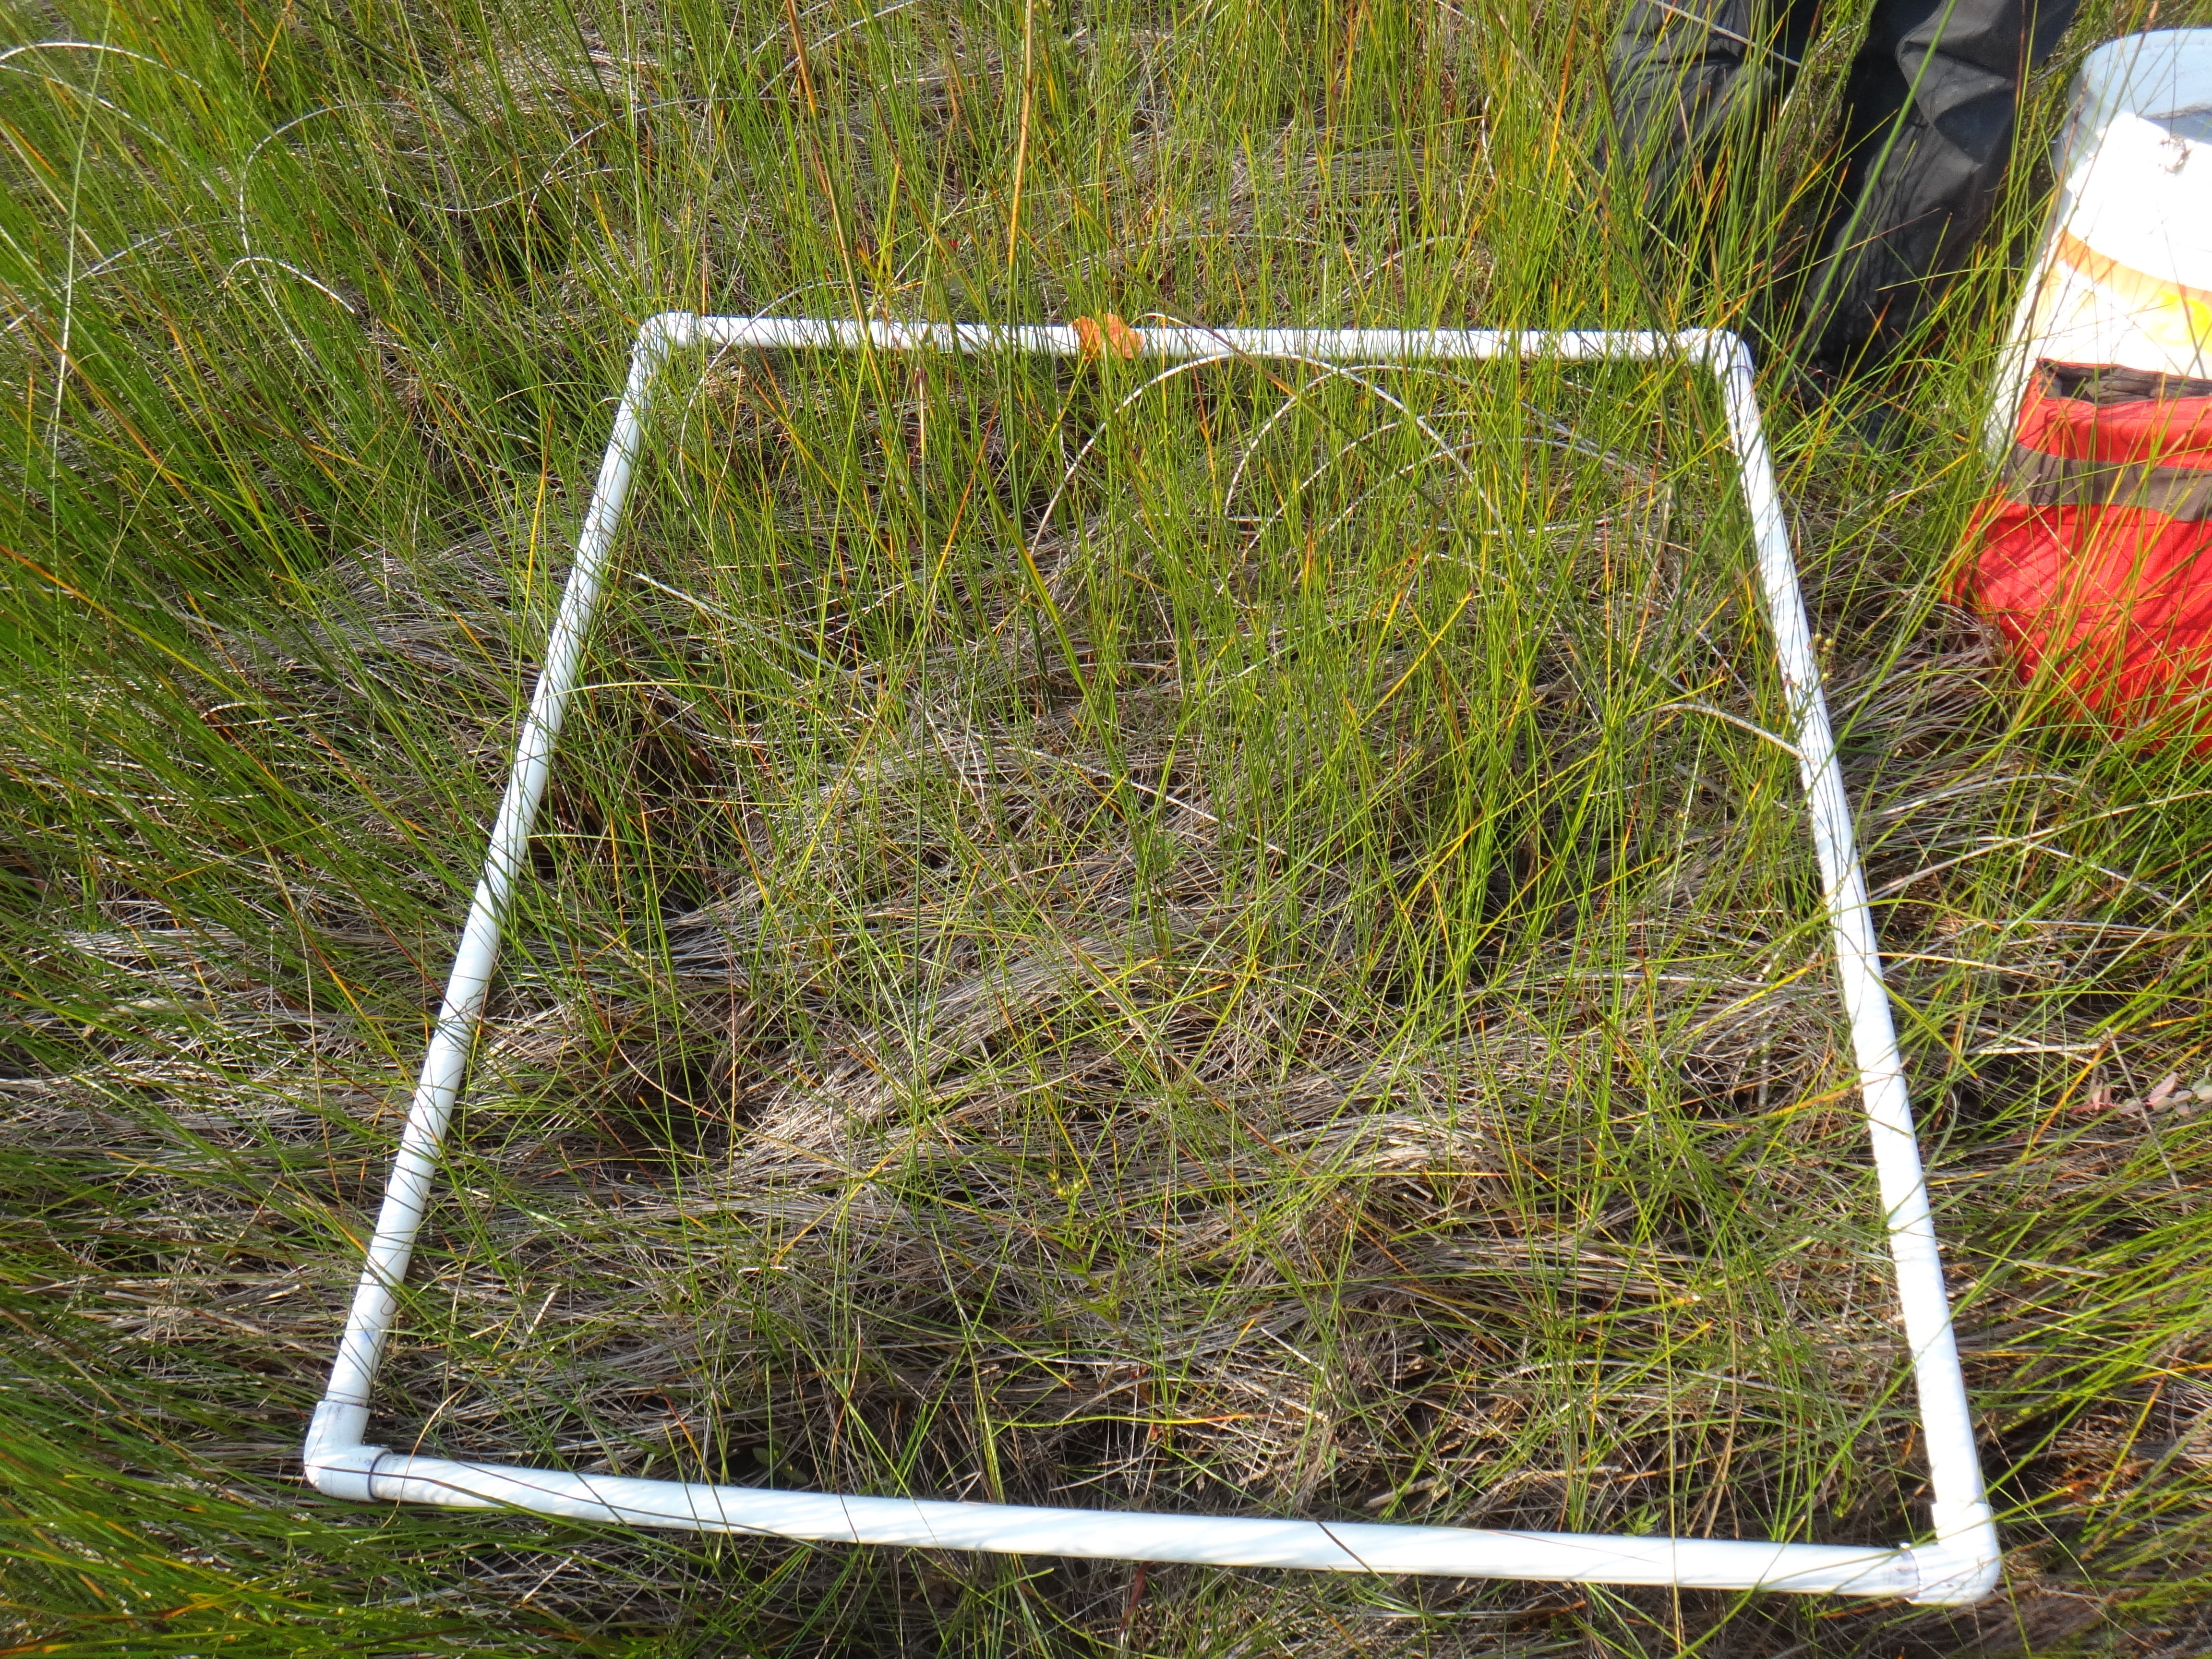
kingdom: Plantae
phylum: Tracheophyta
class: Magnoliopsida
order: Gentianales
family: Rubiaceae
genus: Cephalanthus
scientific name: Cephalanthus occidentalis
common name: Button-willow
